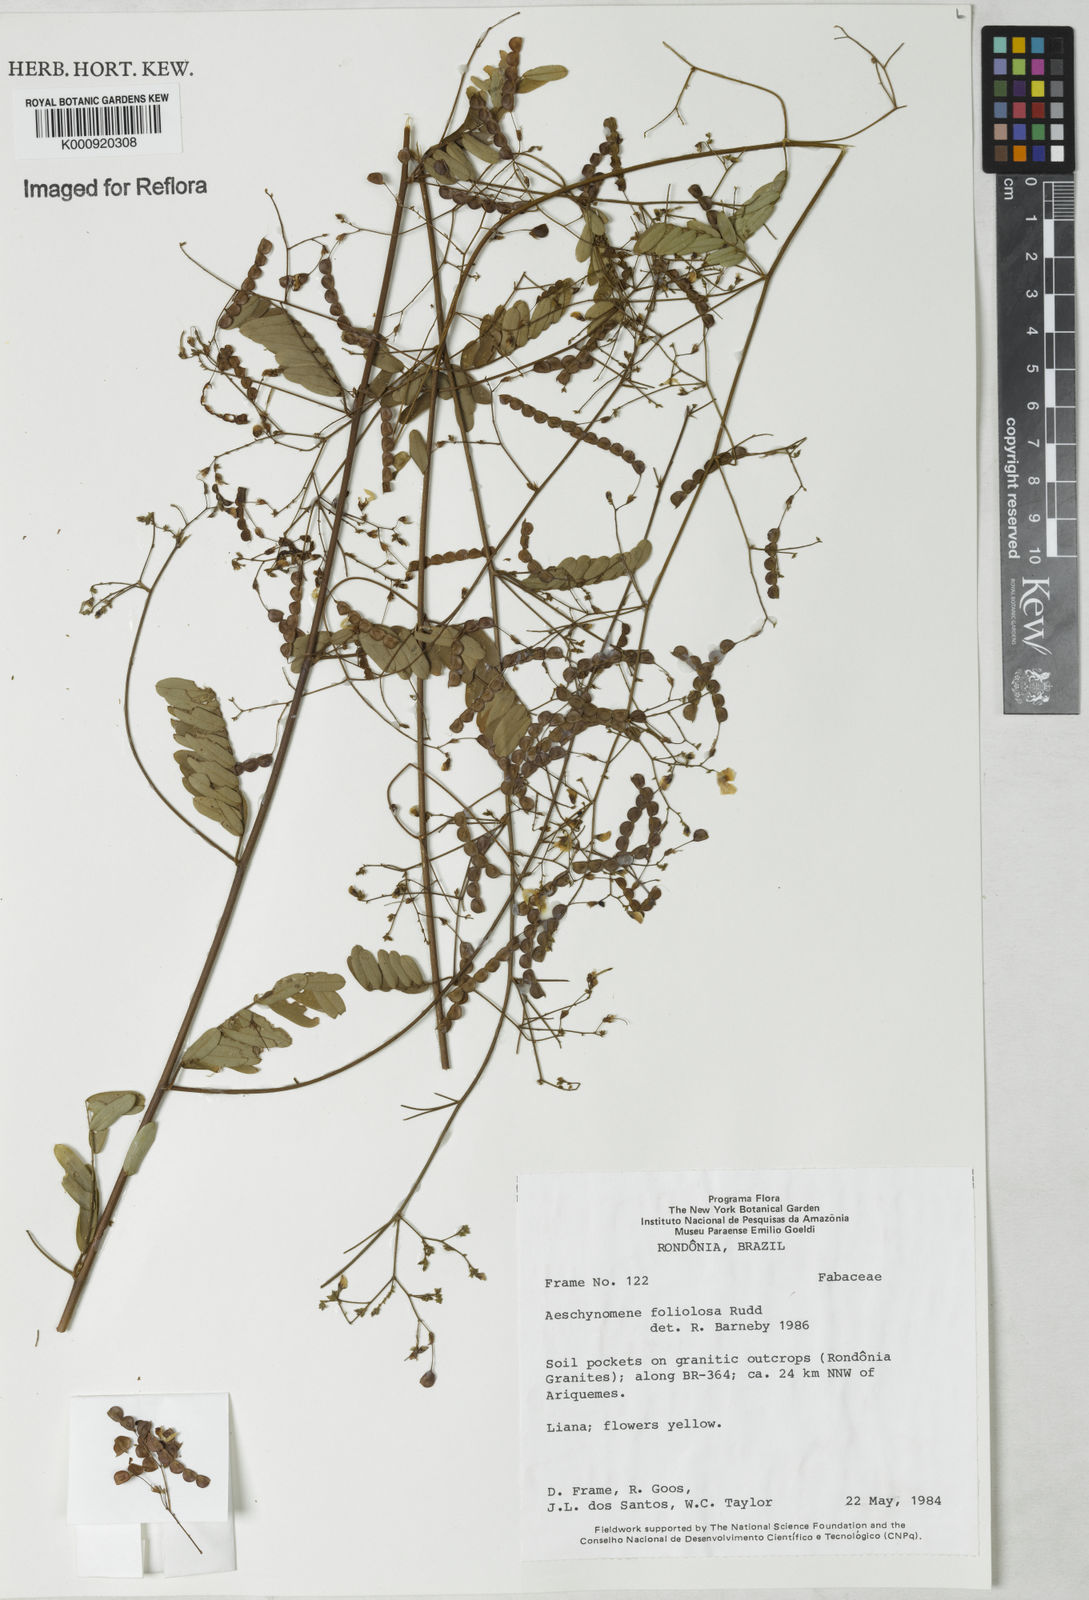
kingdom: Plantae
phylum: Tracheophyta
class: Magnoliopsida
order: Fabales
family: Fabaceae
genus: Ctenodon
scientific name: Ctenodon foliolosus
